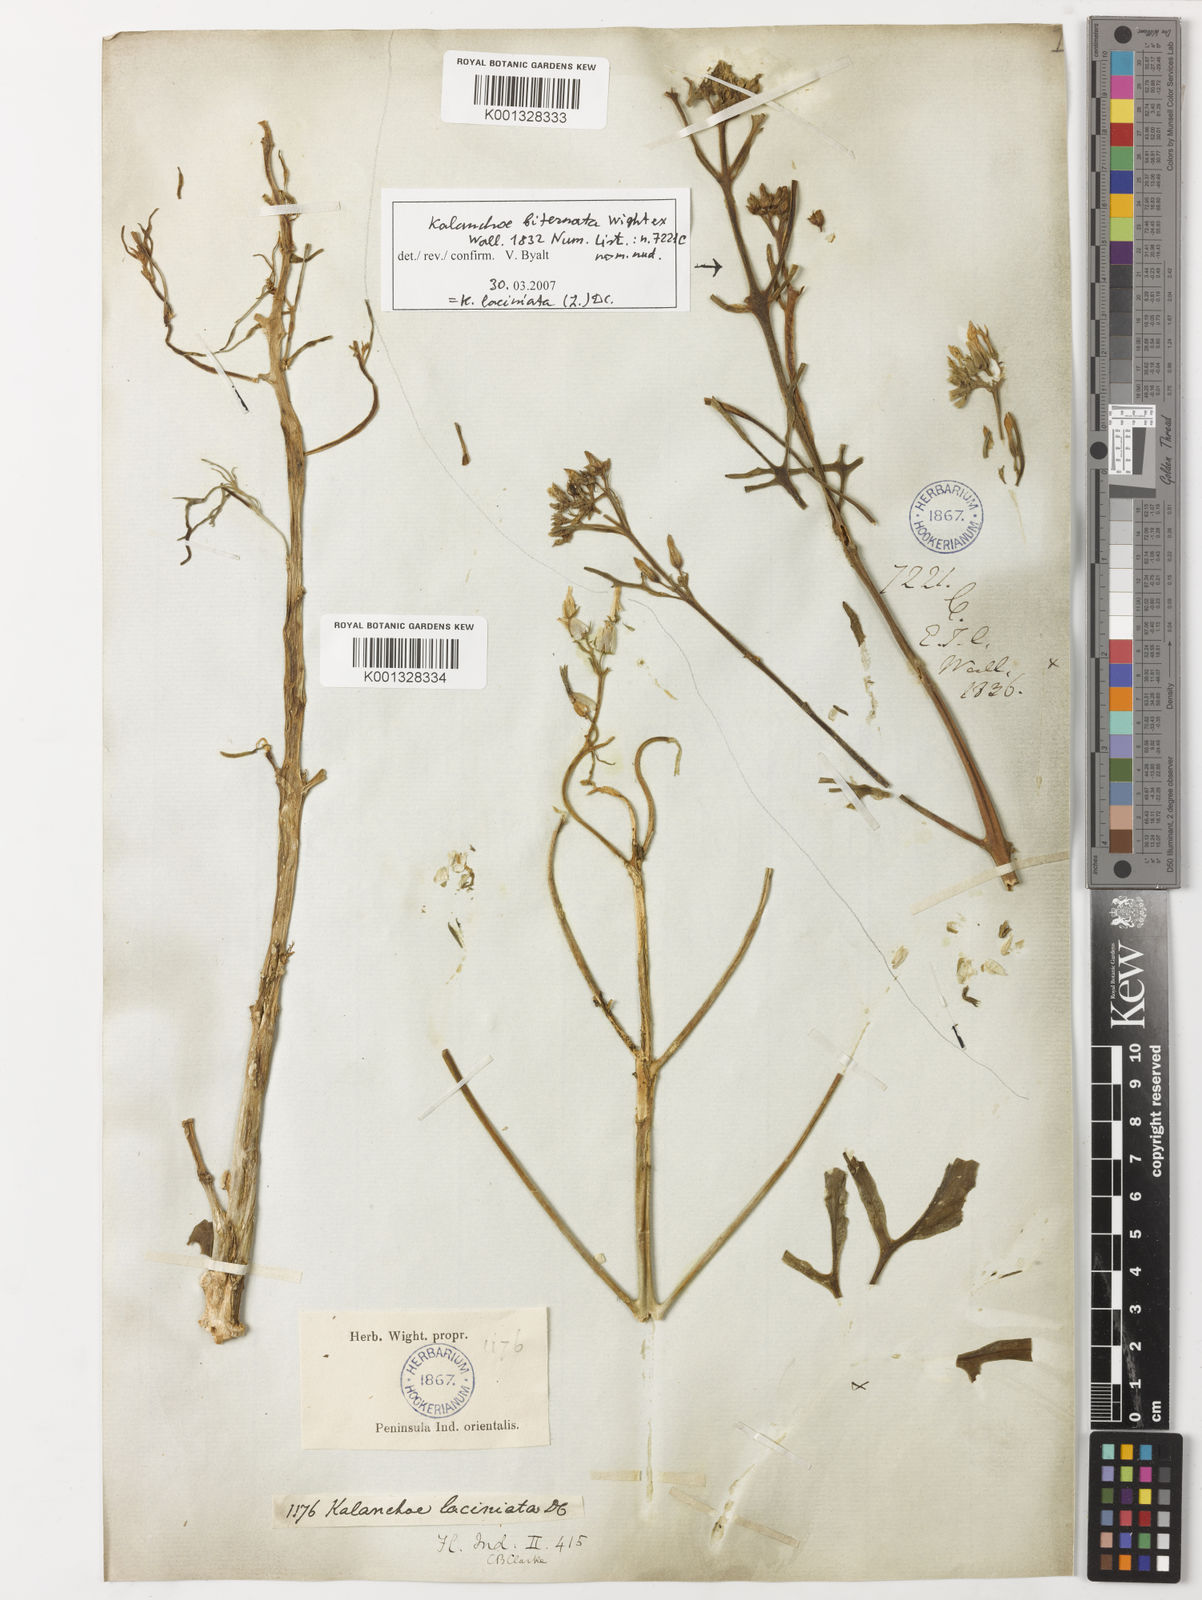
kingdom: Plantae
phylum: Tracheophyta
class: Magnoliopsida
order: Saxifragales
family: Crassulaceae
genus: Kalanchoe
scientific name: Kalanchoe laciniata
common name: Christmastree plant
